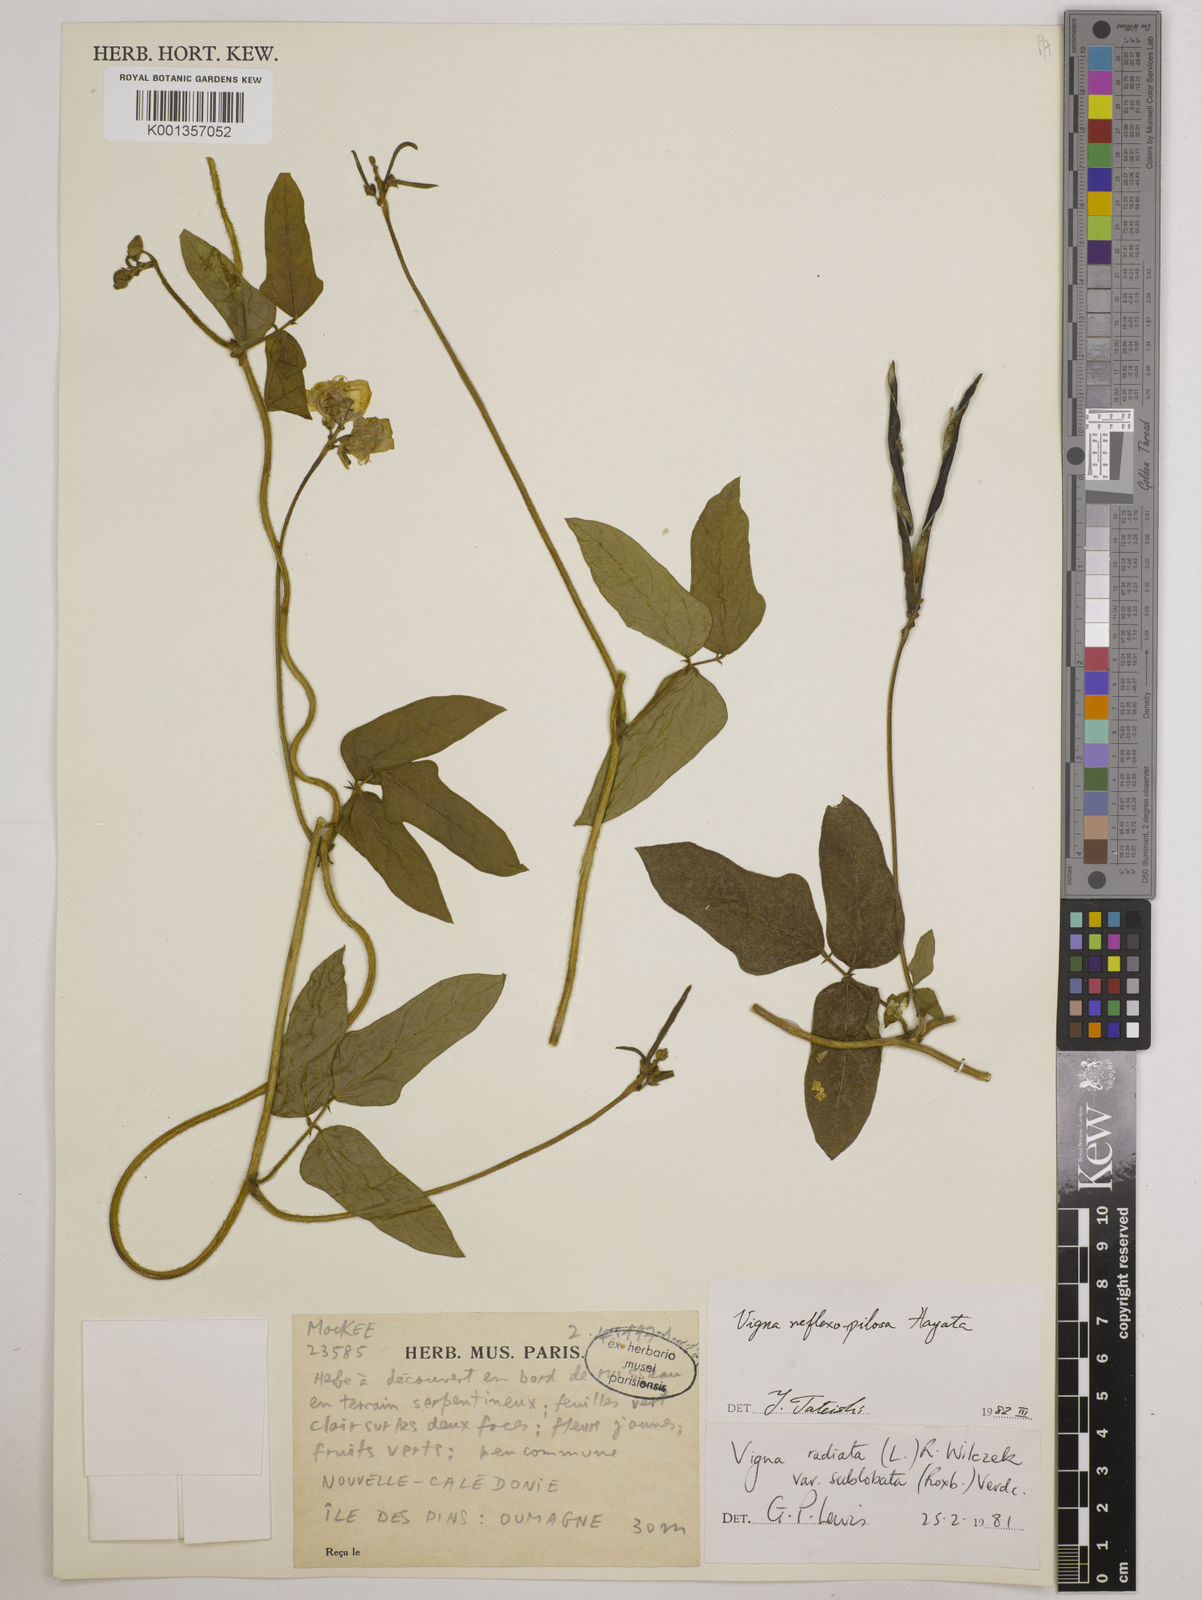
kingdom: Plantae
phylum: Tracheophyta
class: Magnoliopsida
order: Fabales
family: Fabaceae
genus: Vigna
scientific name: Vigna reflexopilosa
